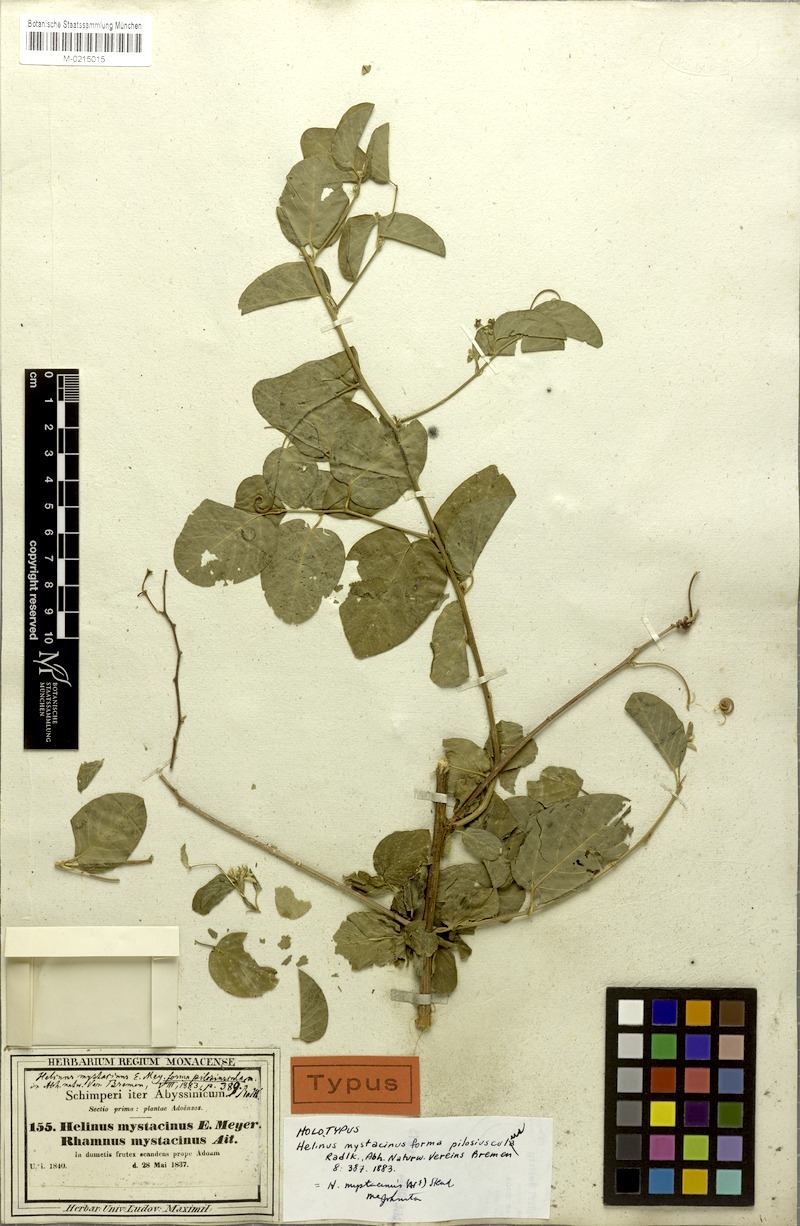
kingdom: Plantae
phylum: Tracheophyta
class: Magnoliopsida
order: Rosales
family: Rhamnaceae
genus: Helinus
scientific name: Helinus mystacinus
